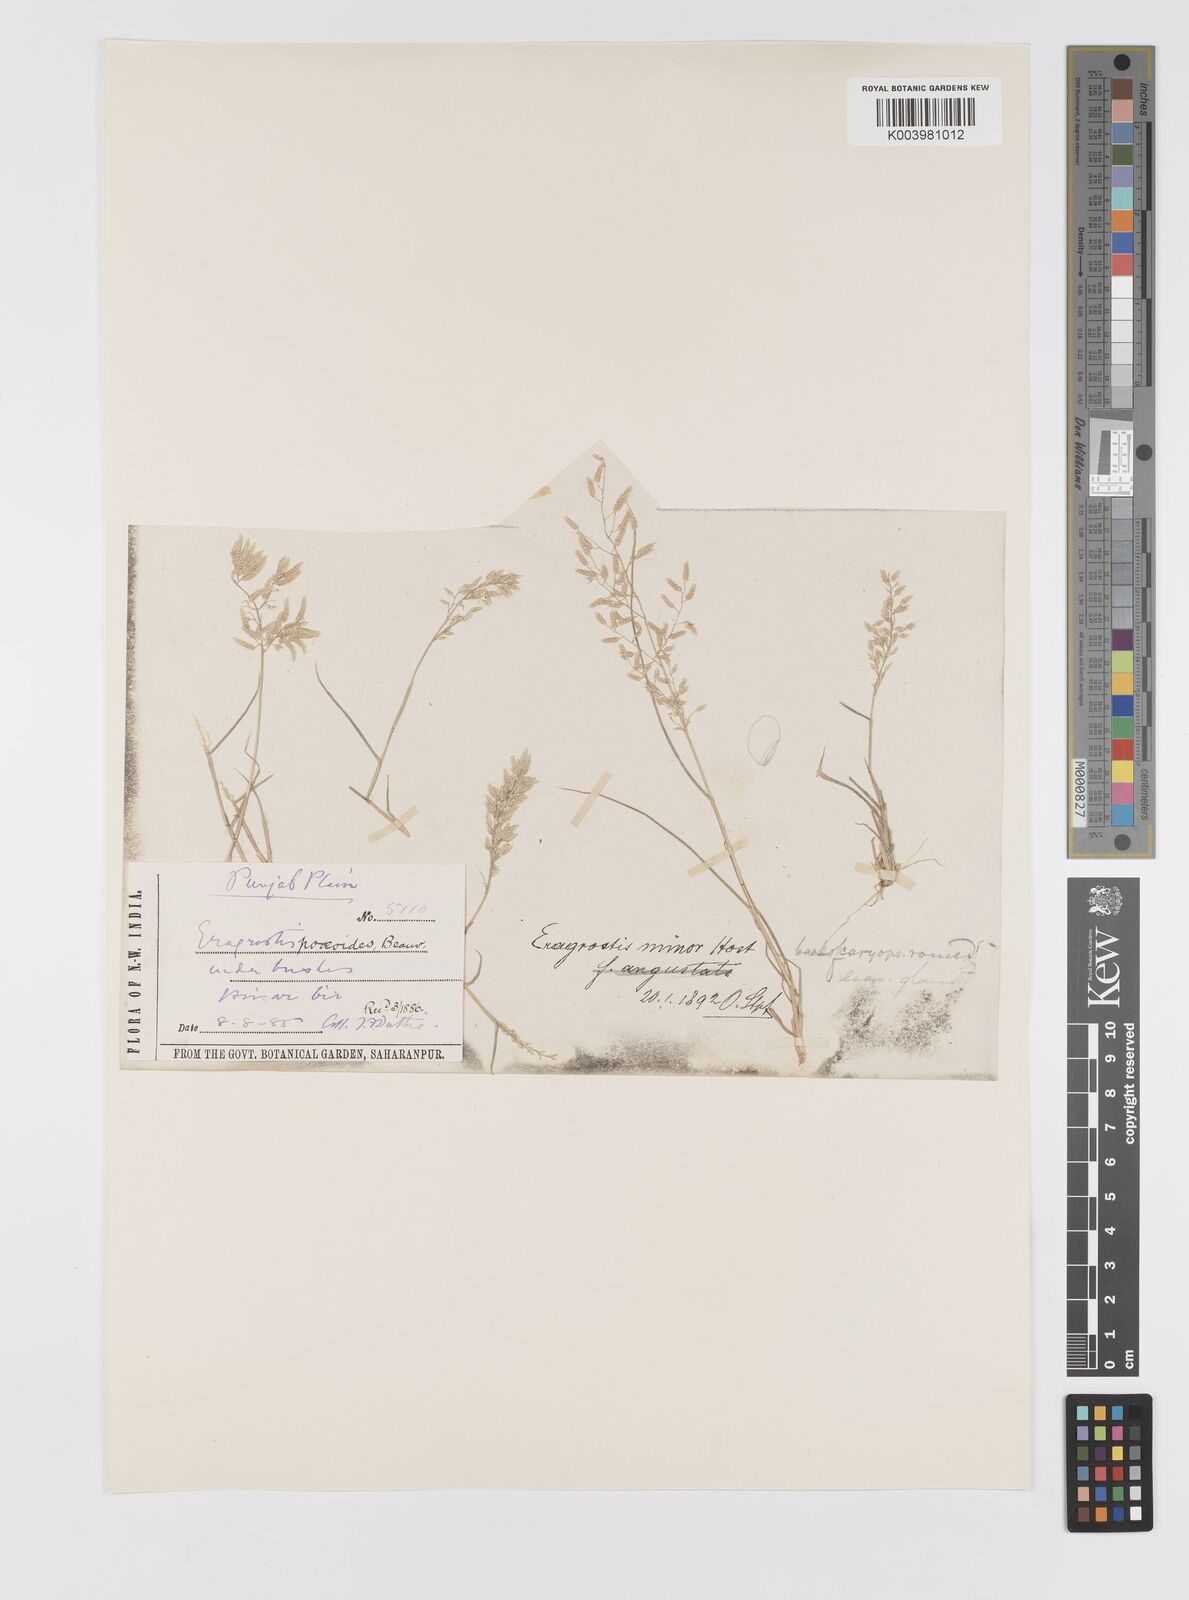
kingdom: Plantae
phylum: Tracheophyta
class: Liliopsida
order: Poales
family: Poaceae
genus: Eragrostis
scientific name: Eragrostis minor
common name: Small love-grass
